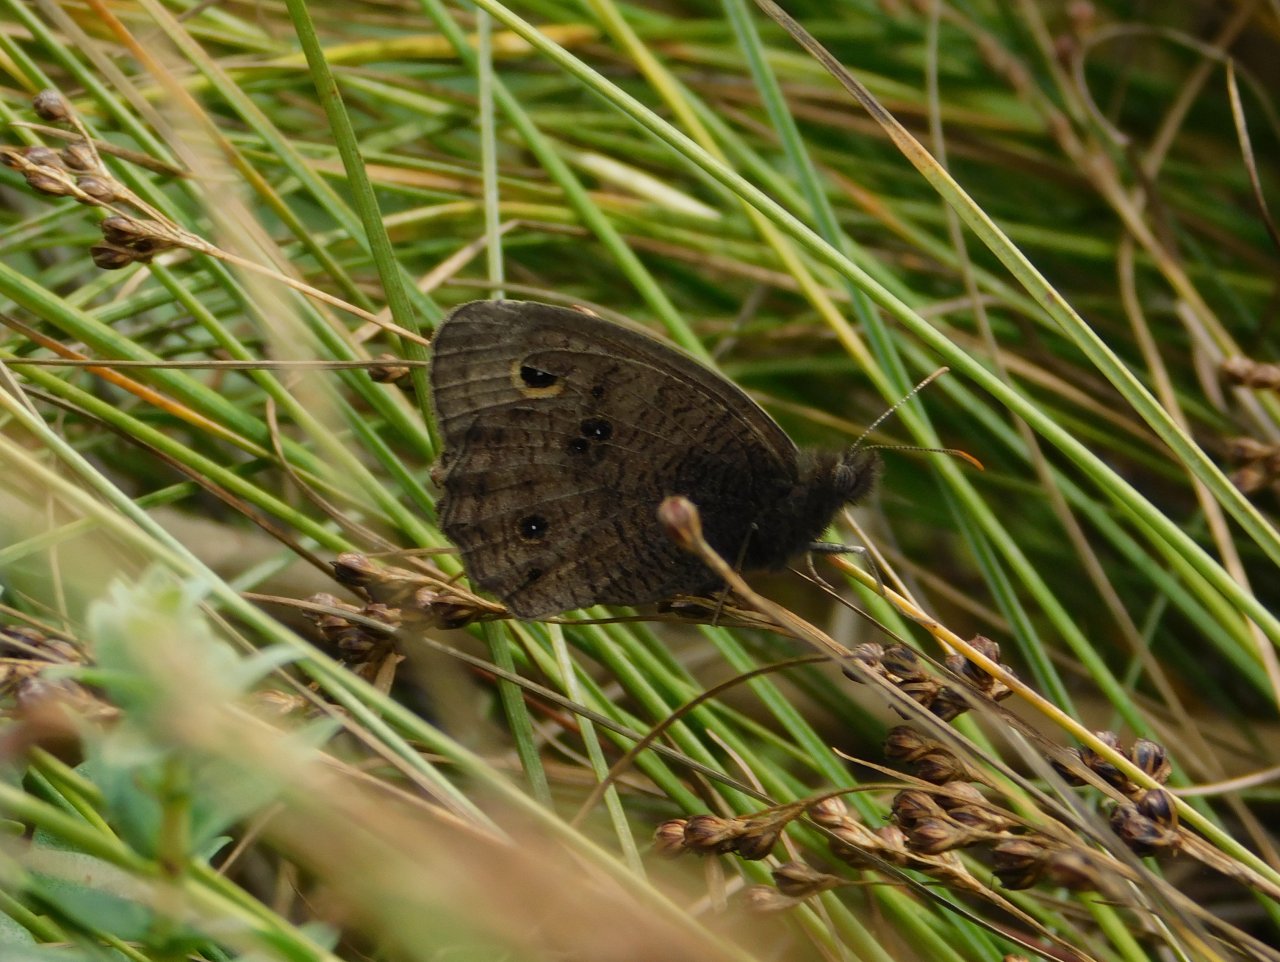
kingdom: Animalia
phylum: Arthropoda
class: Insecta
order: Lepidoptera
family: Nymphalidae
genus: Cercyonis
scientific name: Cercyonis pegala
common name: Common Wood-Nymph
